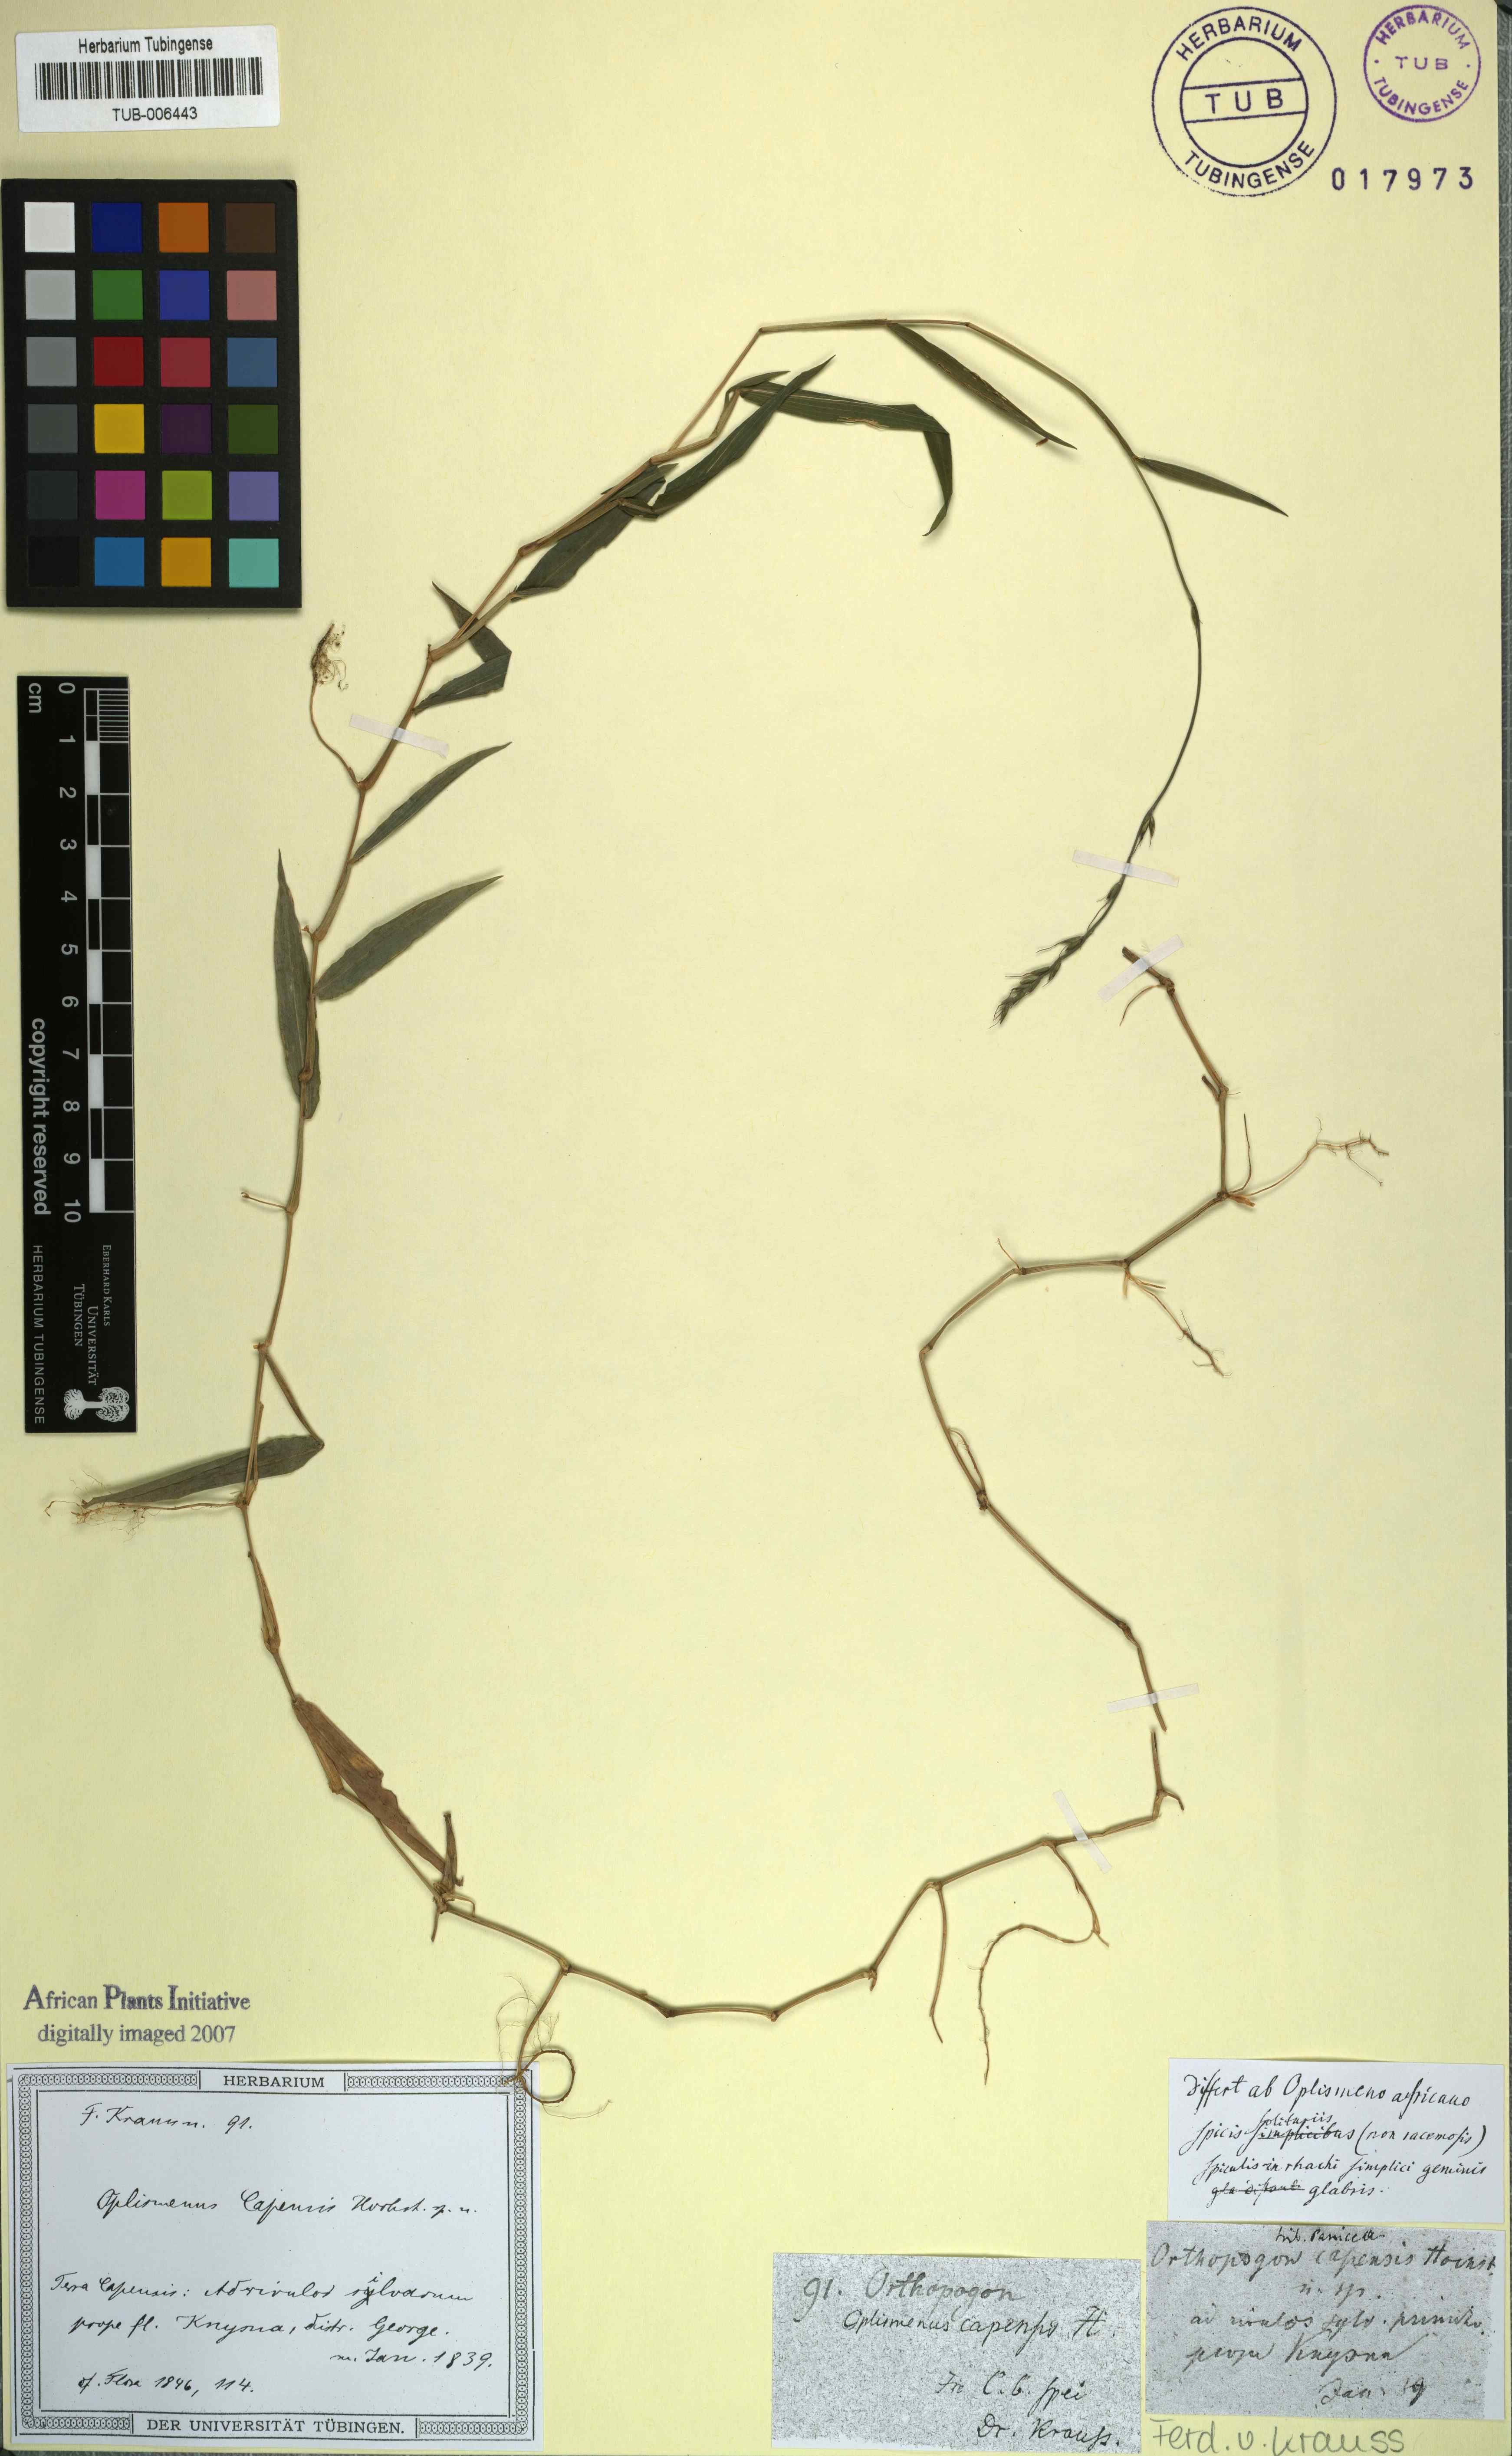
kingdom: Plantae
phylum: Tracheophyta
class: Liliopsida
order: Poales
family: Poaceae
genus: Oplismenus
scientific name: Oplismenus undulatifolius
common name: Wavyleaf basketgrass
